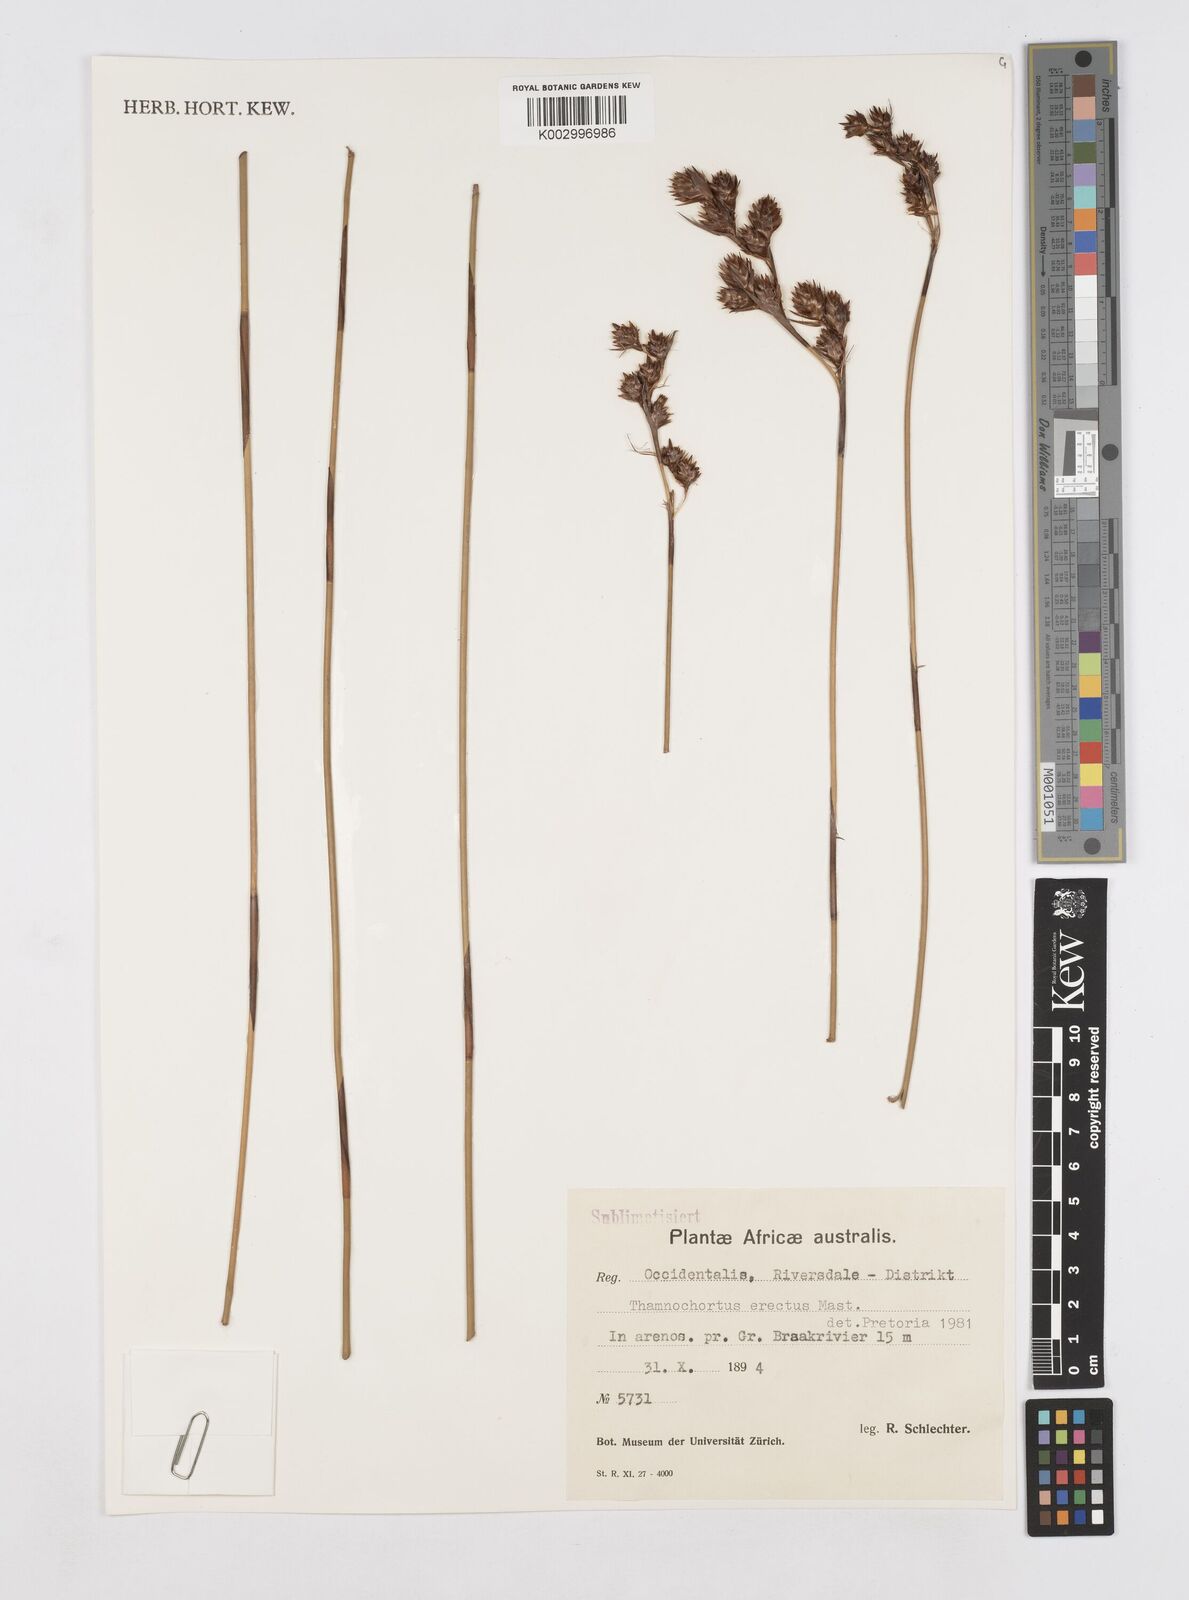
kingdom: Plantae
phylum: Tracheophyta
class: Liliopsida
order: Poales
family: Restionaceae
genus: Thamnochortus
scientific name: Thamnochortus erectus
